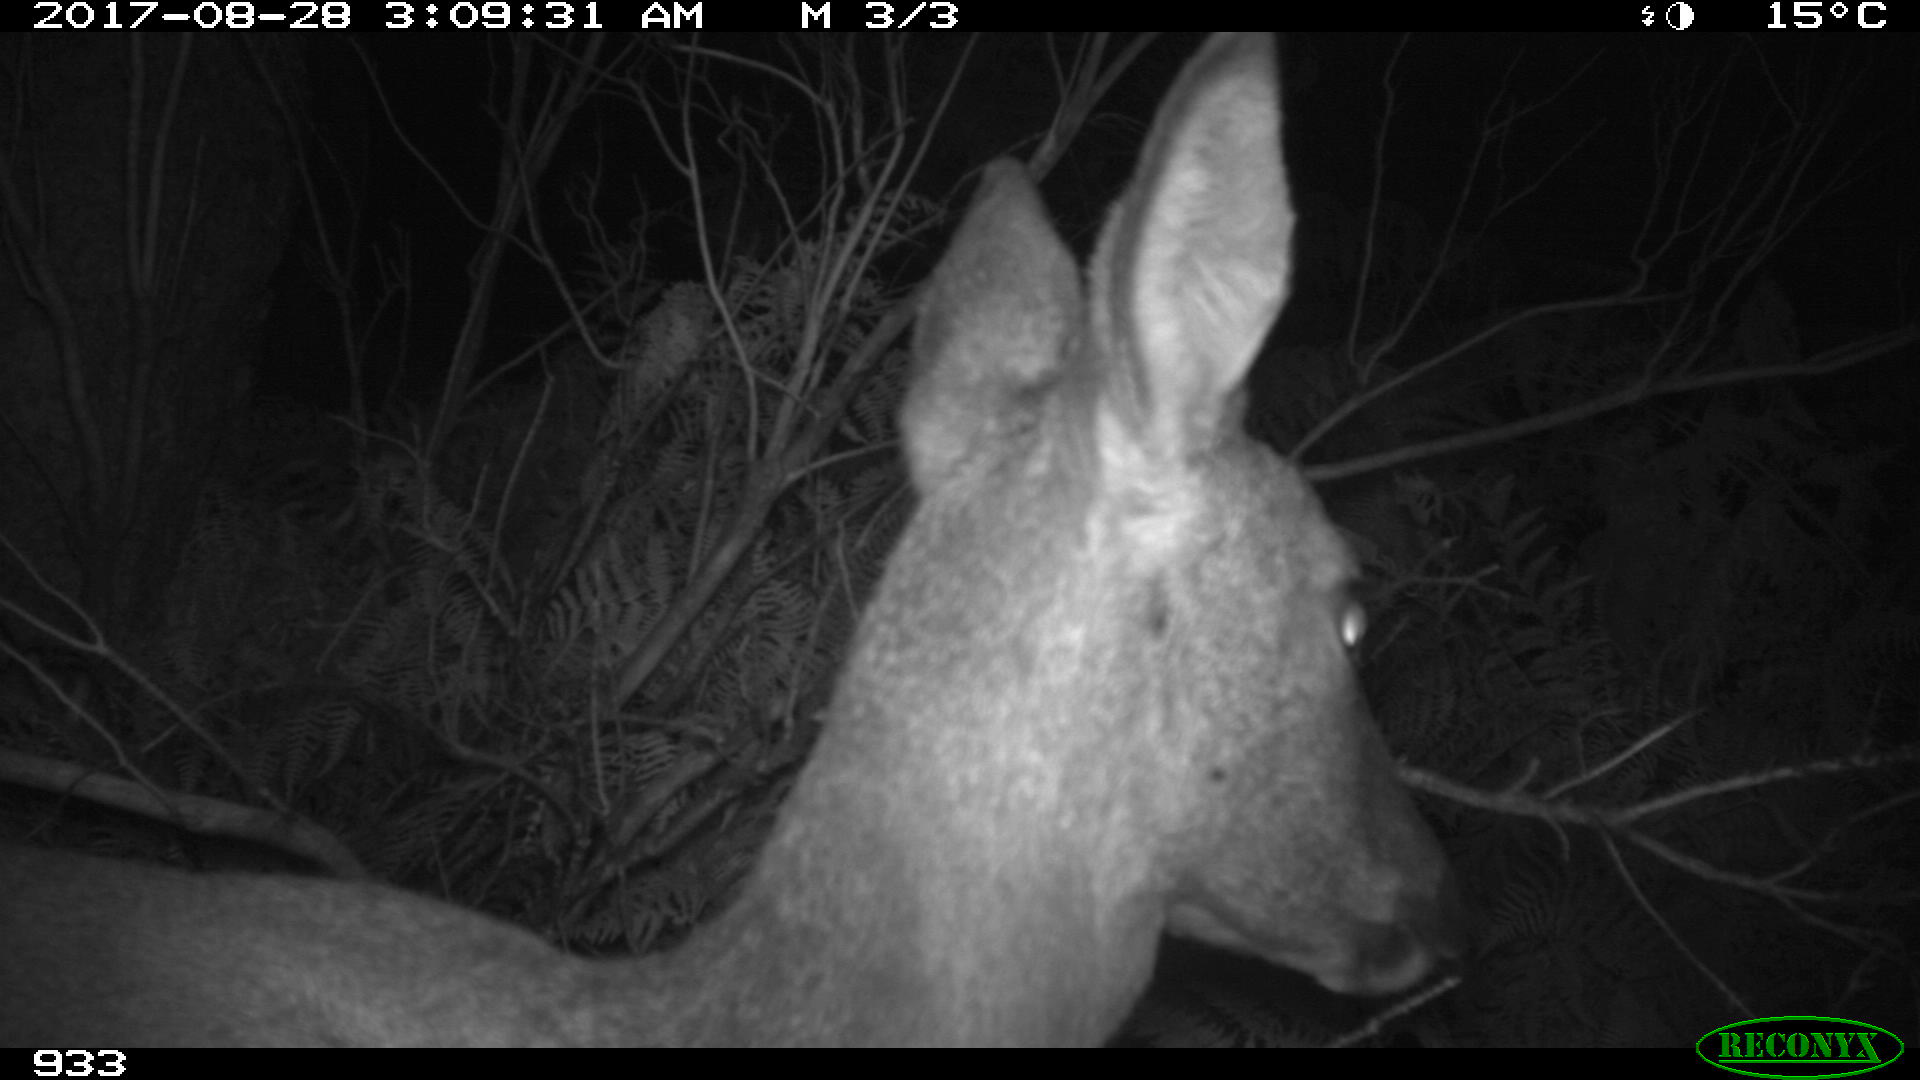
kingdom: Animalia
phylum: Chordata
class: Mammalia
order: Artiodactyla
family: Cervidae
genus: Capreolus
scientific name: Capreolus capreolus
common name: Western roe deer
